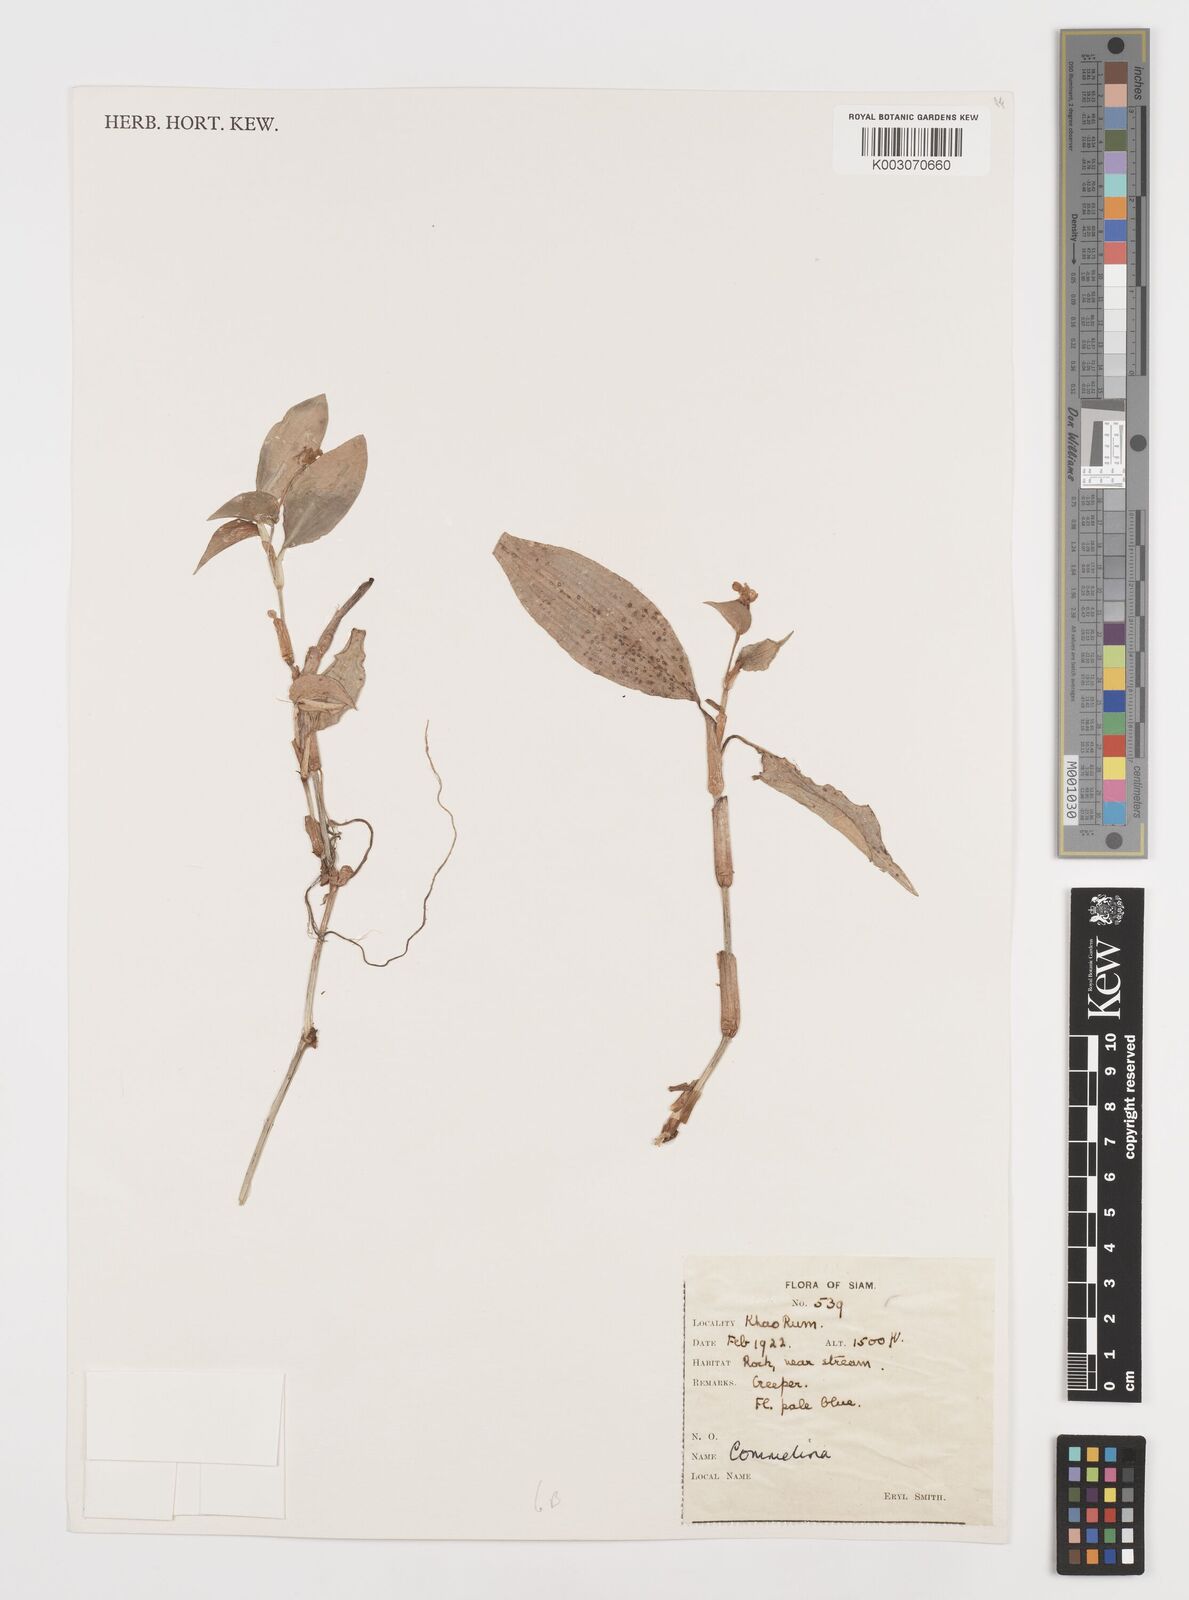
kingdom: Plantae
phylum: Tracheophyta
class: Liliopsida
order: Commelinales
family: Commelinaceae
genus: Commelina
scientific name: Commelina
